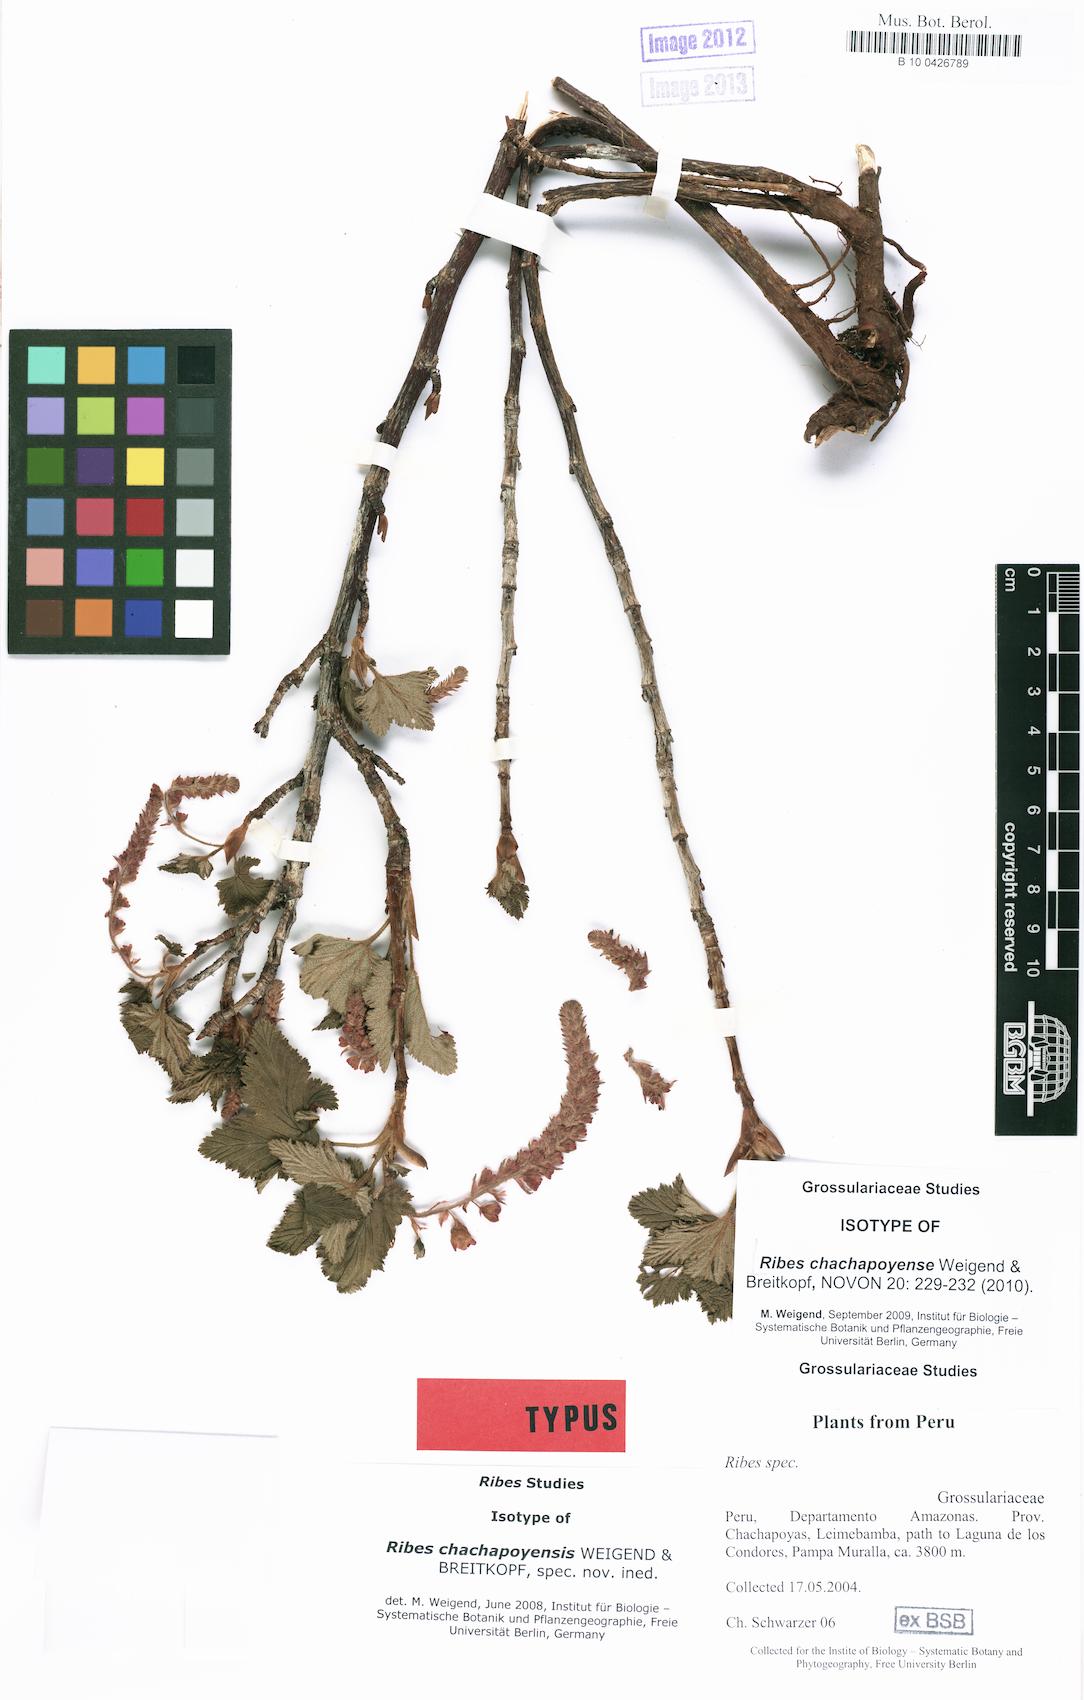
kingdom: Plantae
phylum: Tracheophyta
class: Magnoliopsida
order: Saxifragales
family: Grossulariaceae
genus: Ribes
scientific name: Ribes chachapoyense
